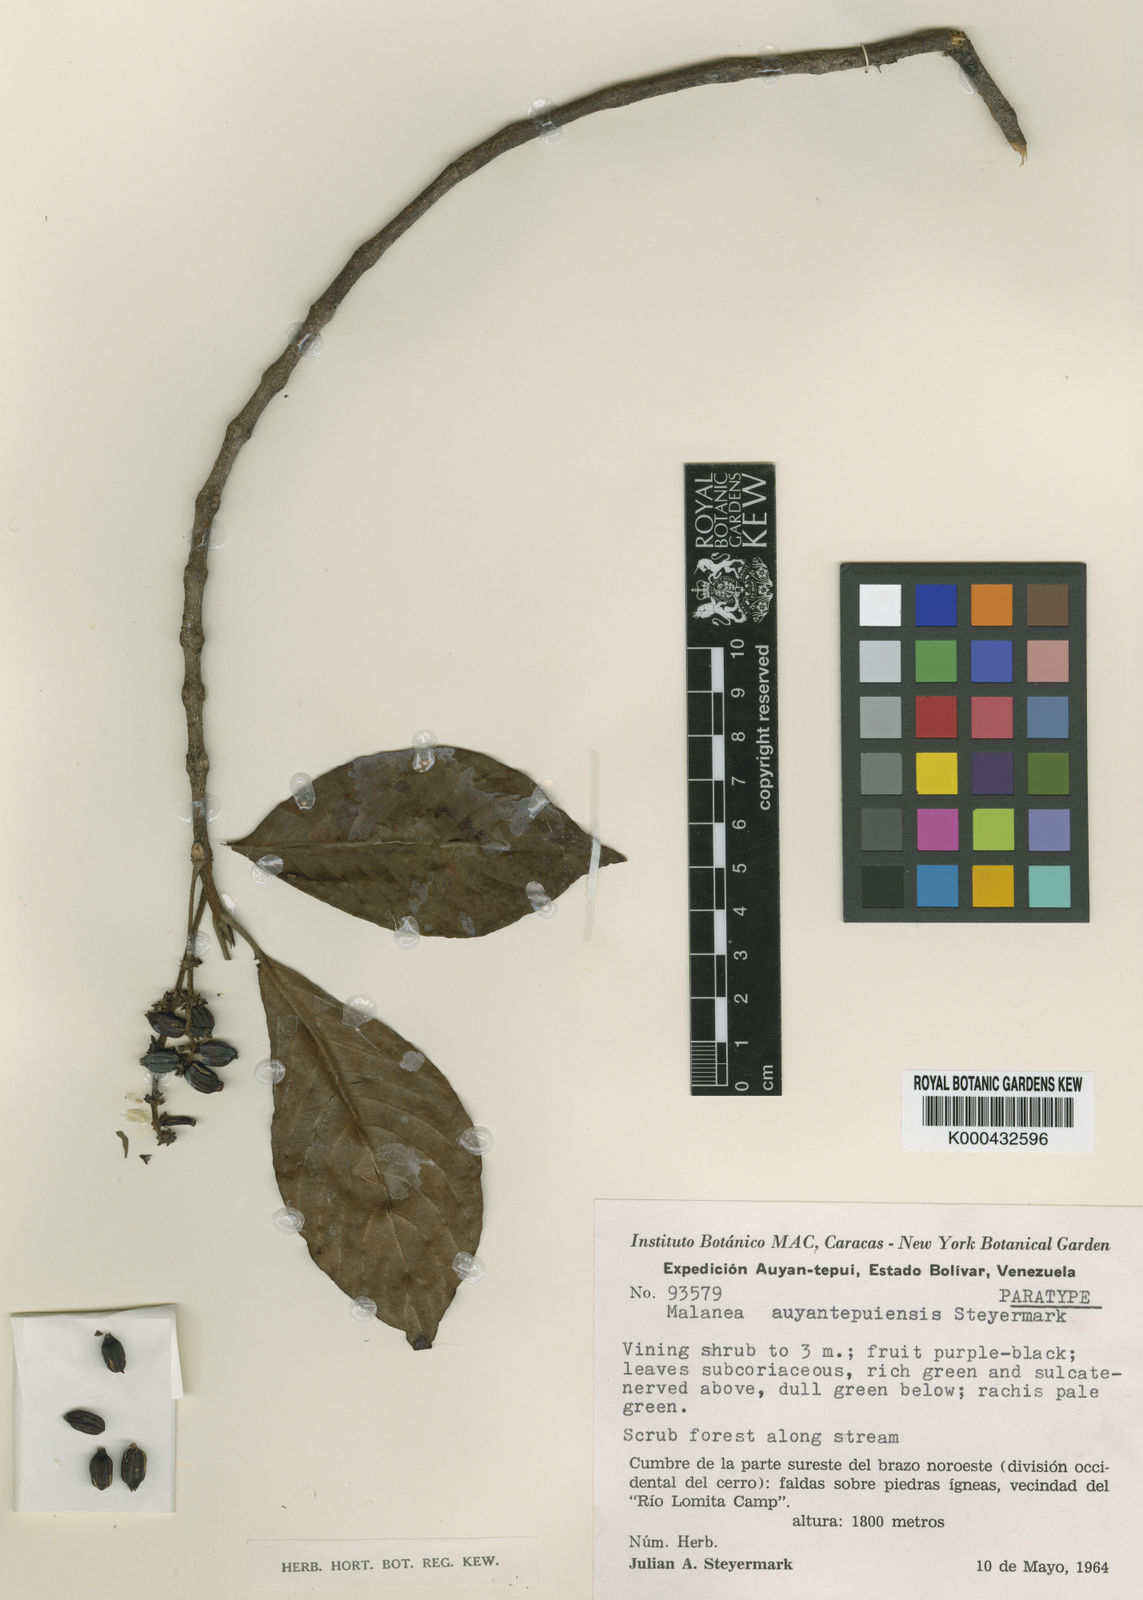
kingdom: Plantae
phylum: Tracheophyta
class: Magnoliopsida
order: Gentianales
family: Rubiaceae
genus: Malanea
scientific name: Malanea auyantepuiensis
